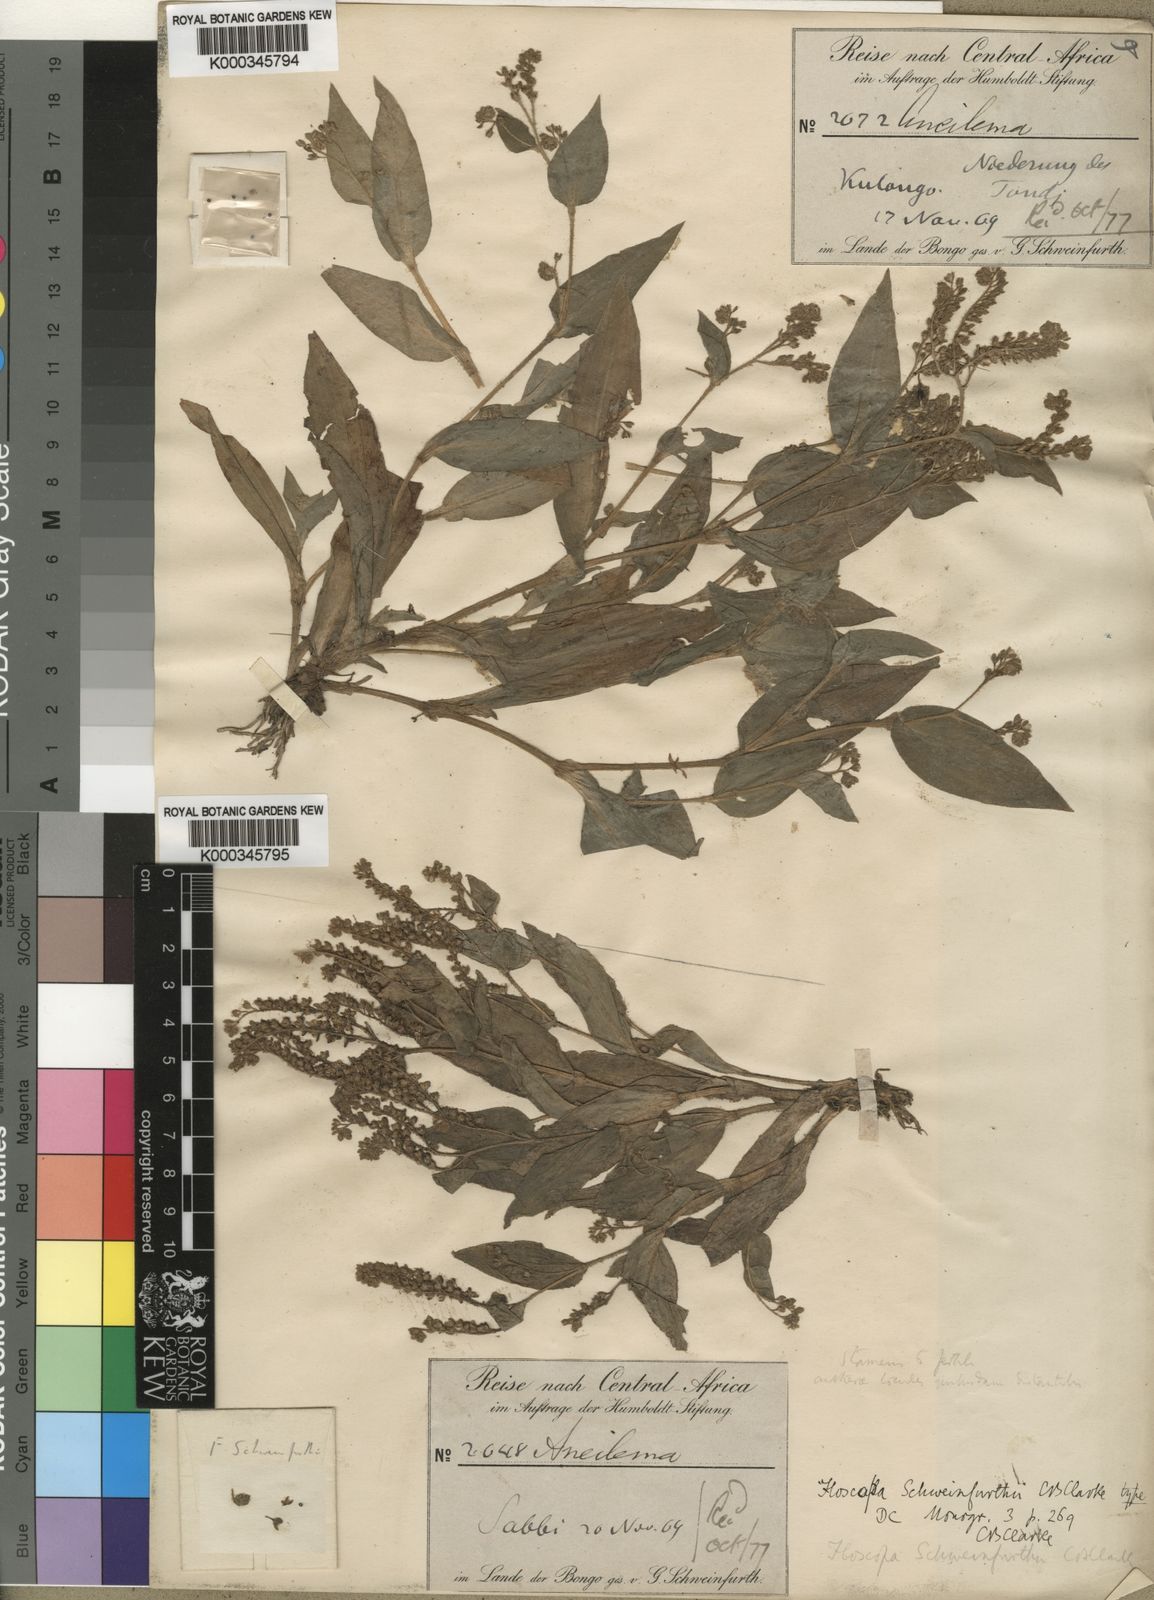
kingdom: Plantae
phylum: Tracheophyta
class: Liliopsida
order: Commelinales
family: Commelinaceae
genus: Floscopa
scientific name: Floscopa schweinfurthii
